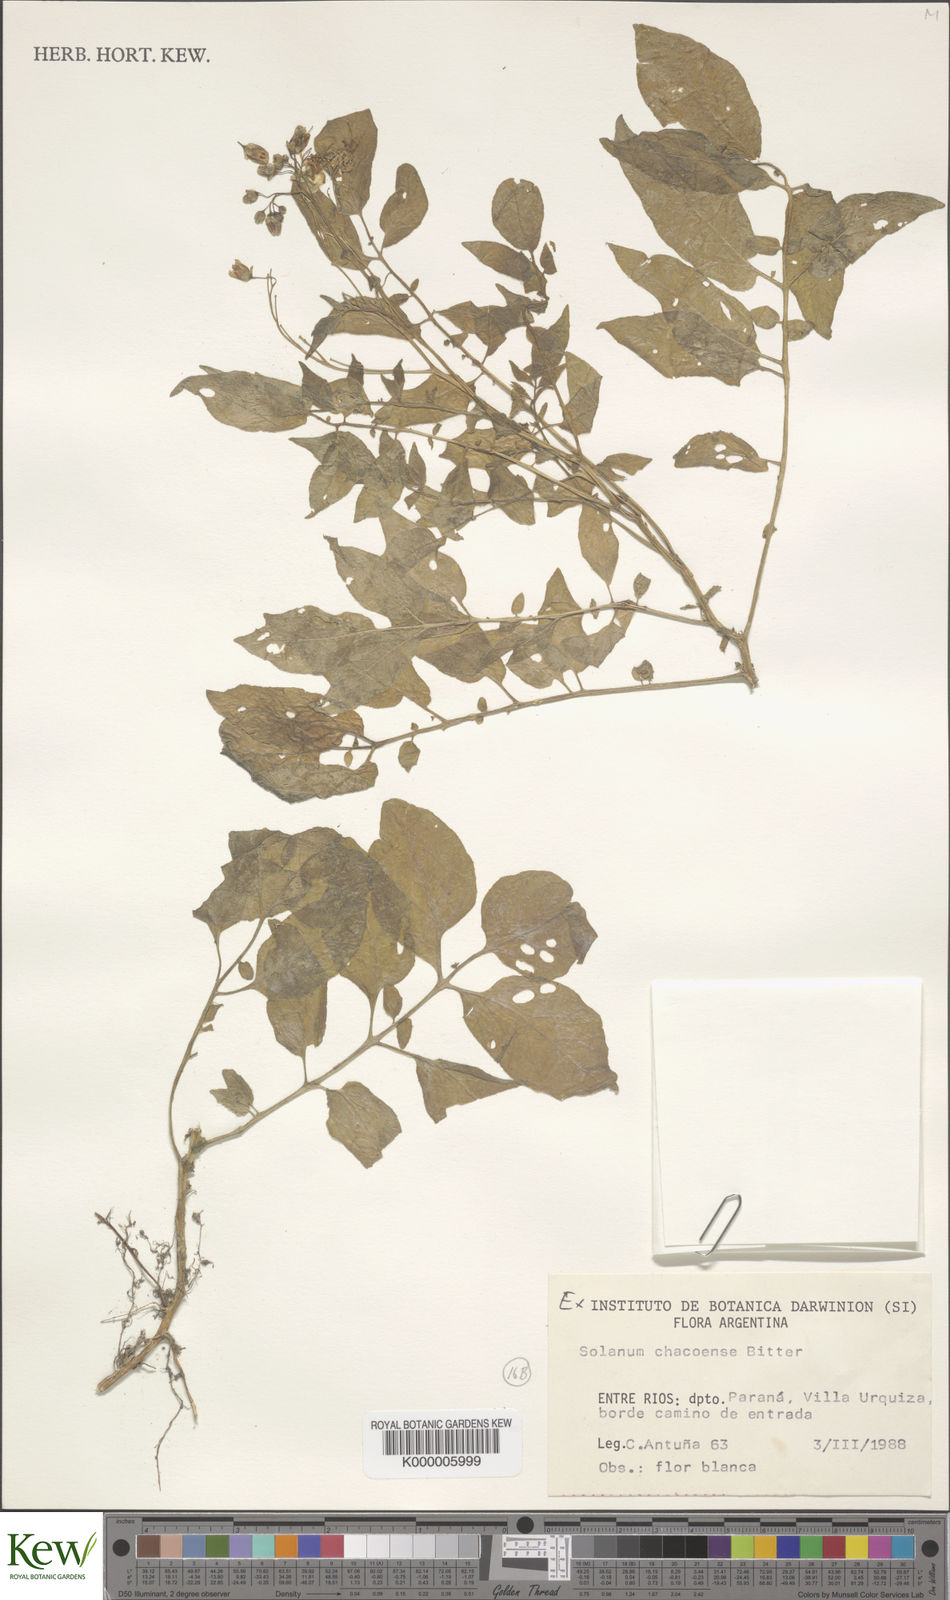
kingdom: Plantae
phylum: Tracheophyta
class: Magnoliopsida
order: Solanales
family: Solanaceae
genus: Solanum
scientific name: Solanum chacoense
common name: Chaco potato
